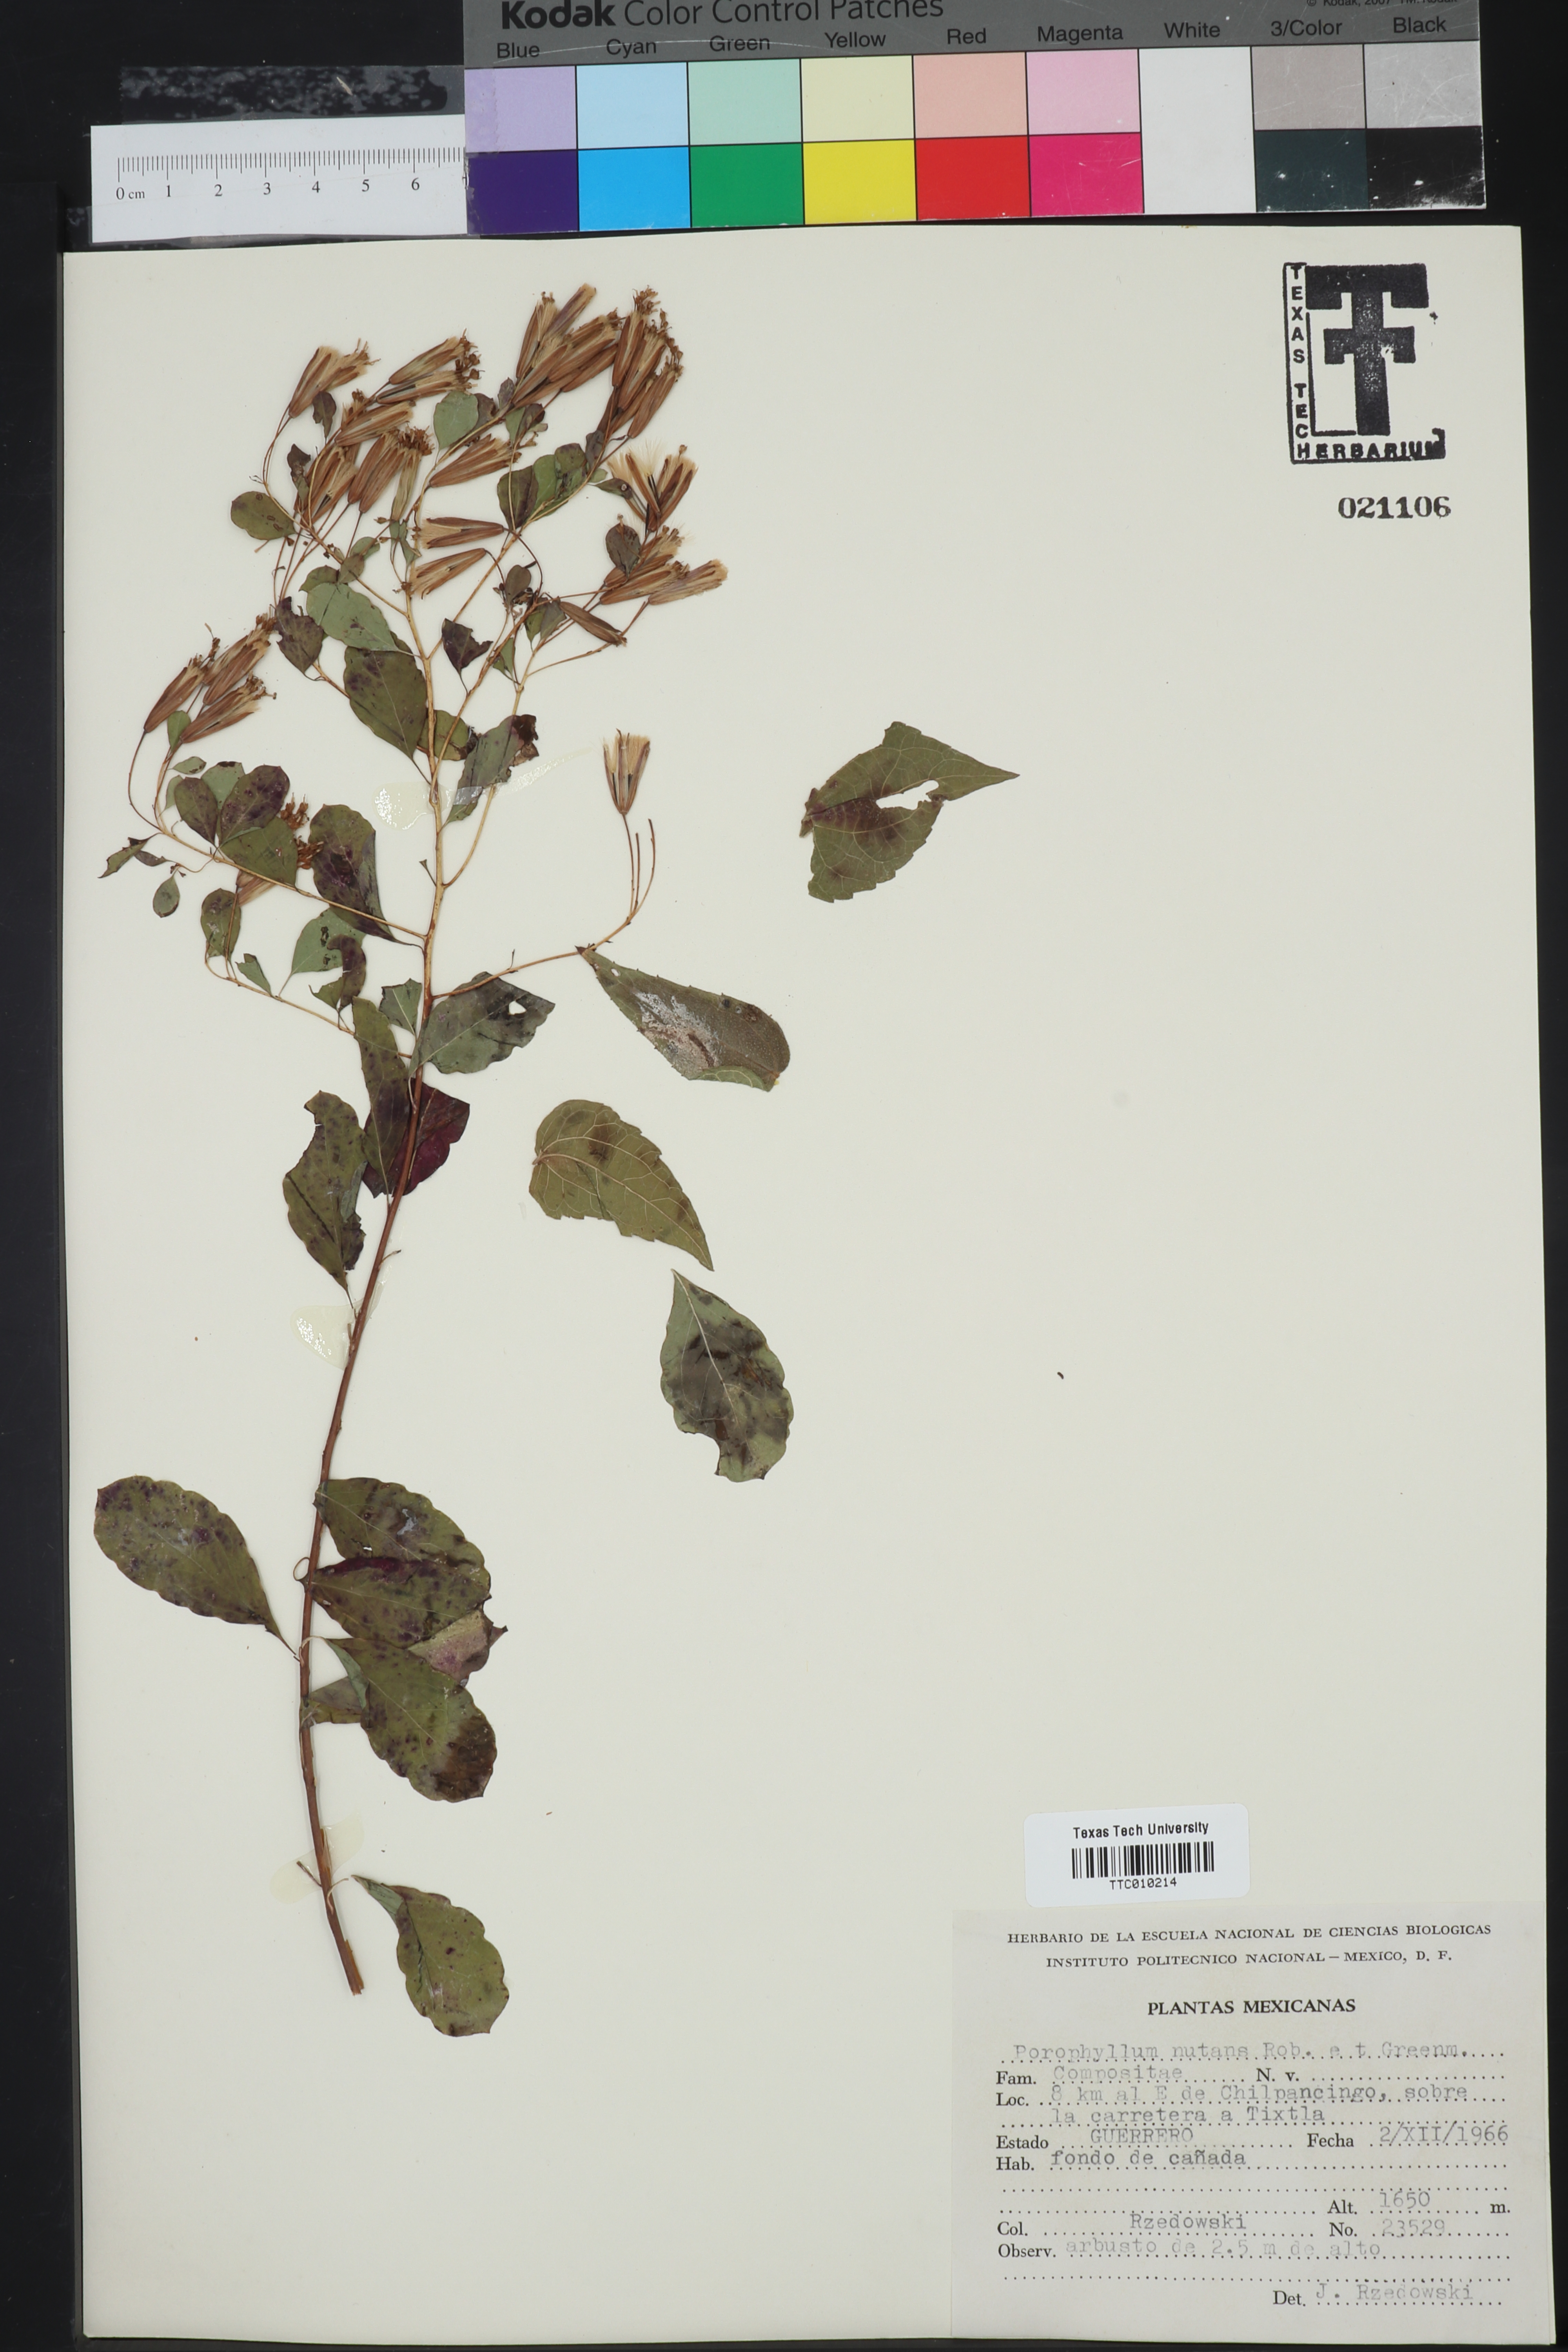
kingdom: Plantae
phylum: Tracheophyta
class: Magnoliopsida
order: Asterales
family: Asteraceae
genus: Porophyllum
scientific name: Porophyllum viridiflorum
